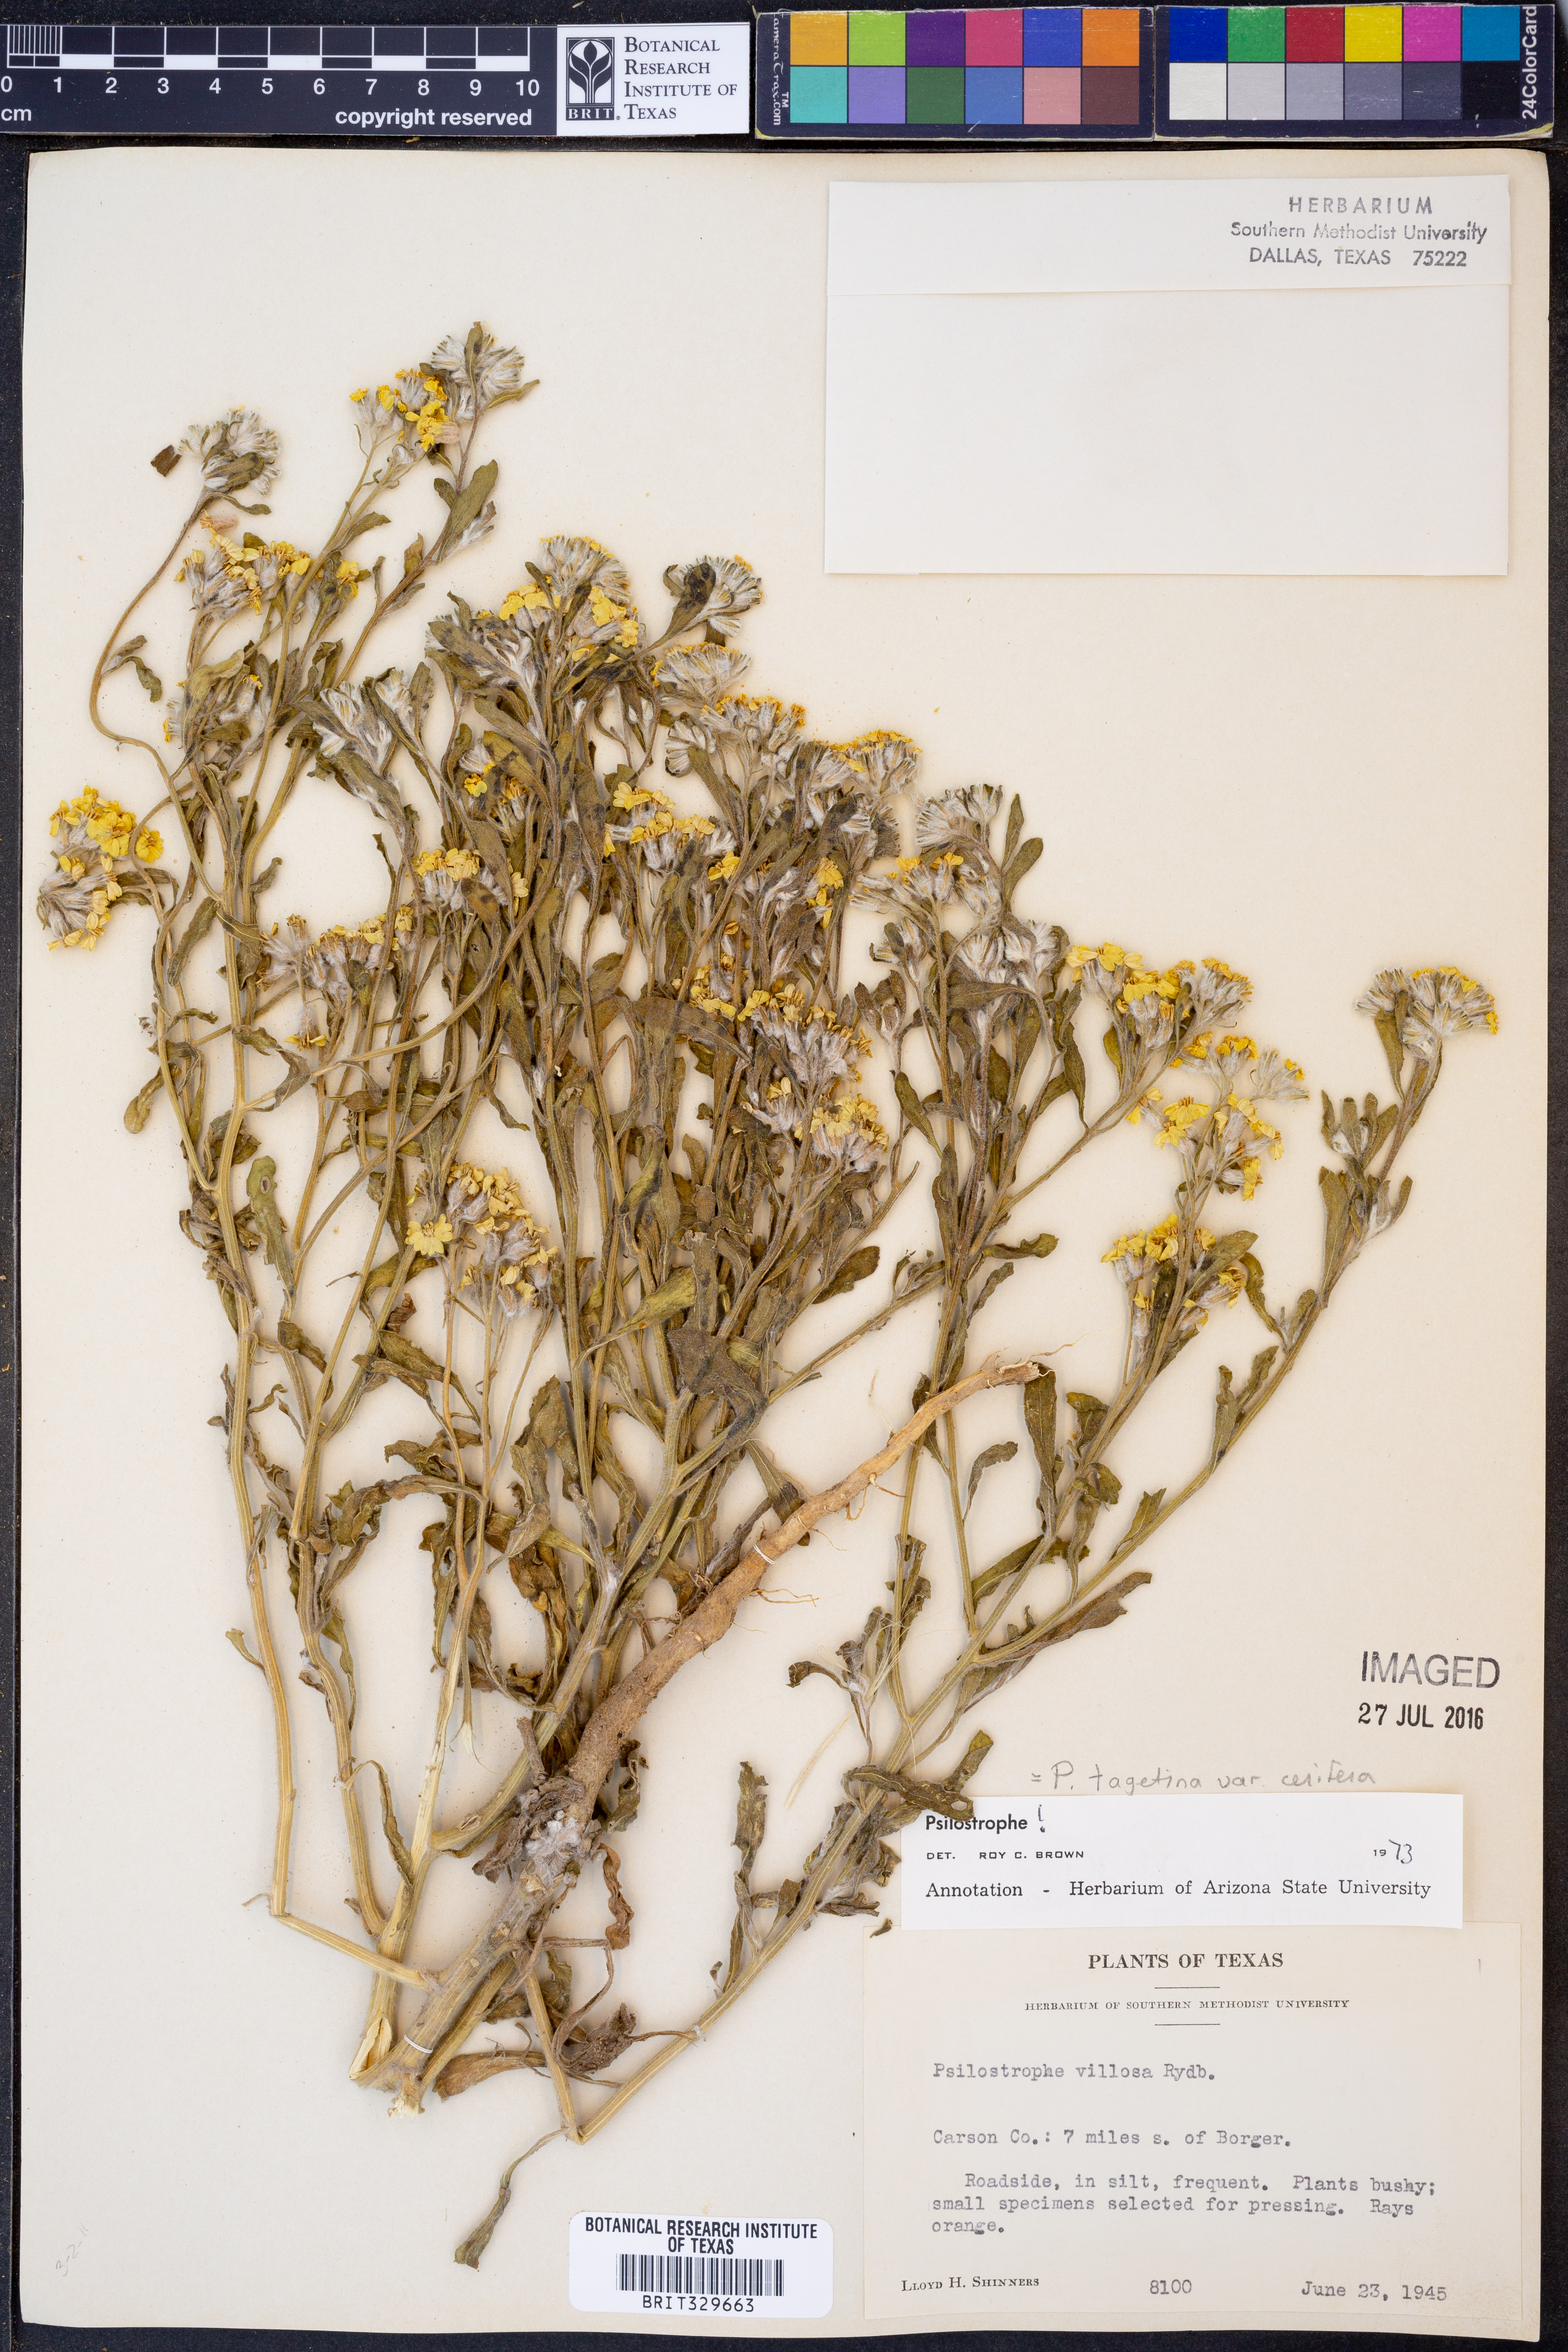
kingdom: Plantae
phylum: Tracheophyta
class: Magnoliopsida
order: Asterales
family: Asteraceae
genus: Psilostrophe
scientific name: Psilostrophe villosa
